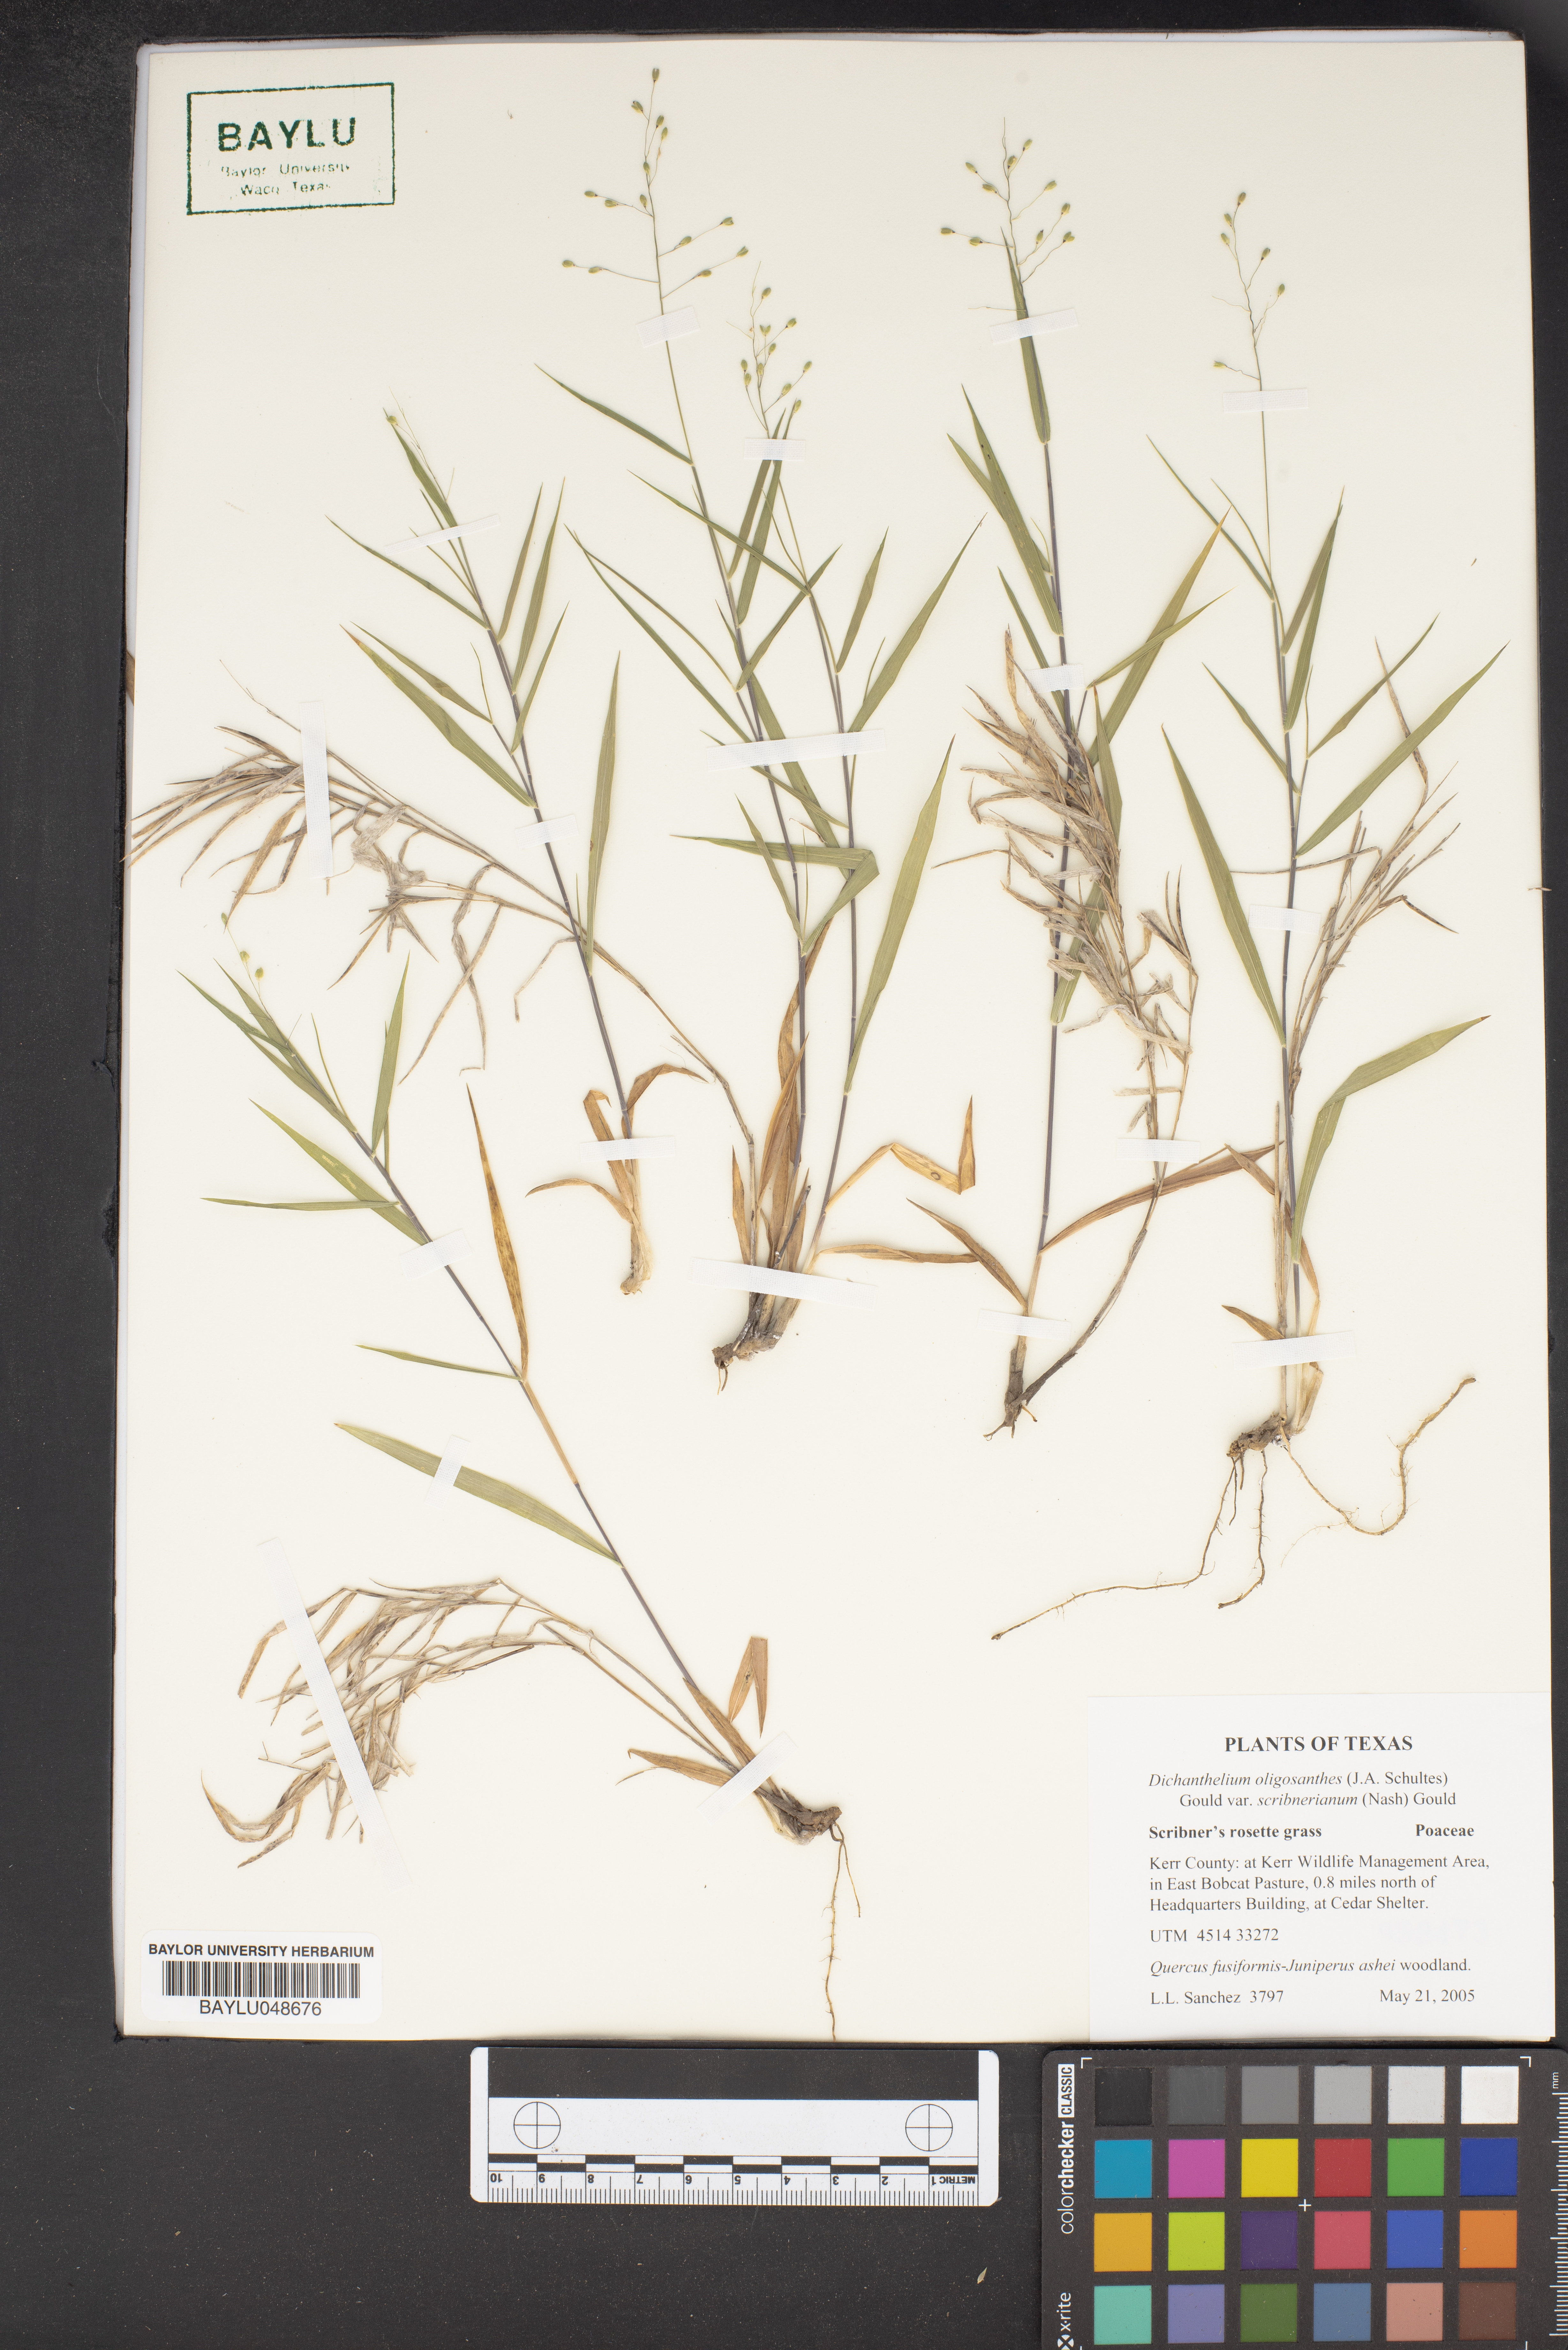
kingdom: Plantae
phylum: Tracheophyta
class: Liliopsida
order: Poales
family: Poaceae
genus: Dichanthelium
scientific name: Dichanthelium scribnerianum
